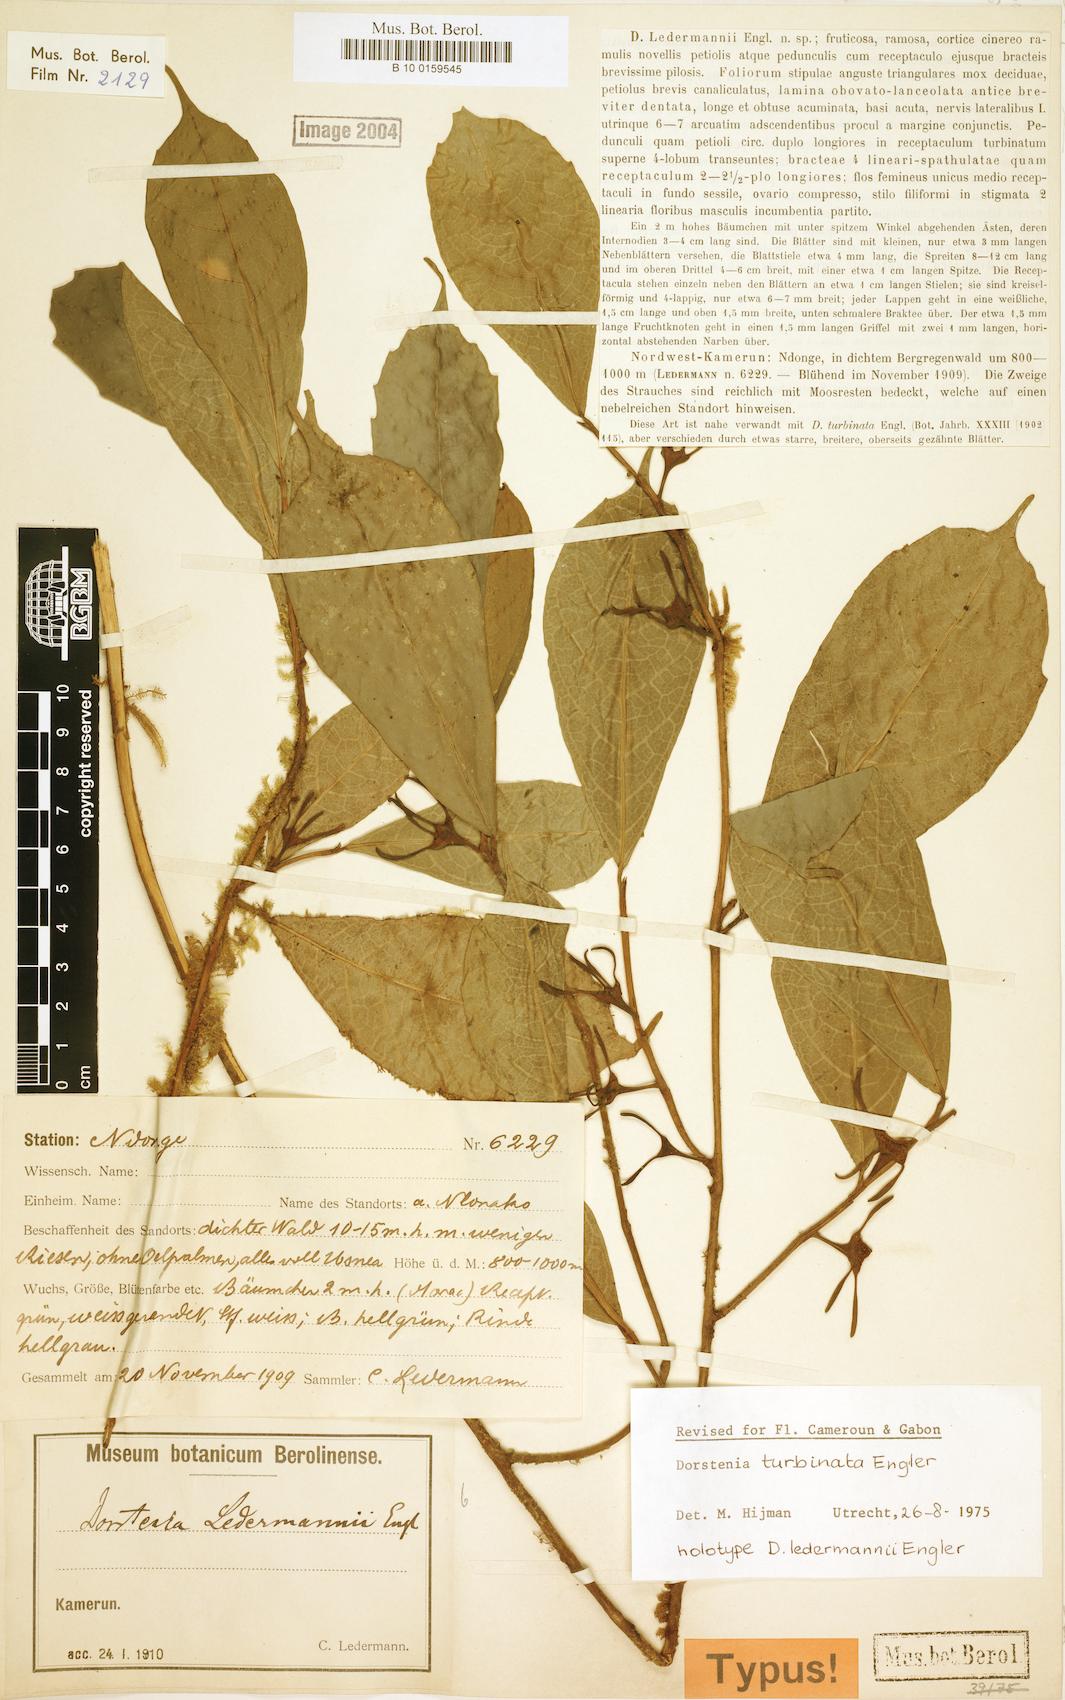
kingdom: Plantae
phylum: Tracheophyta
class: Magnoliopsida
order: Rosales
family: Moraceae
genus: Hijmania
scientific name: Hijmania turbinata
